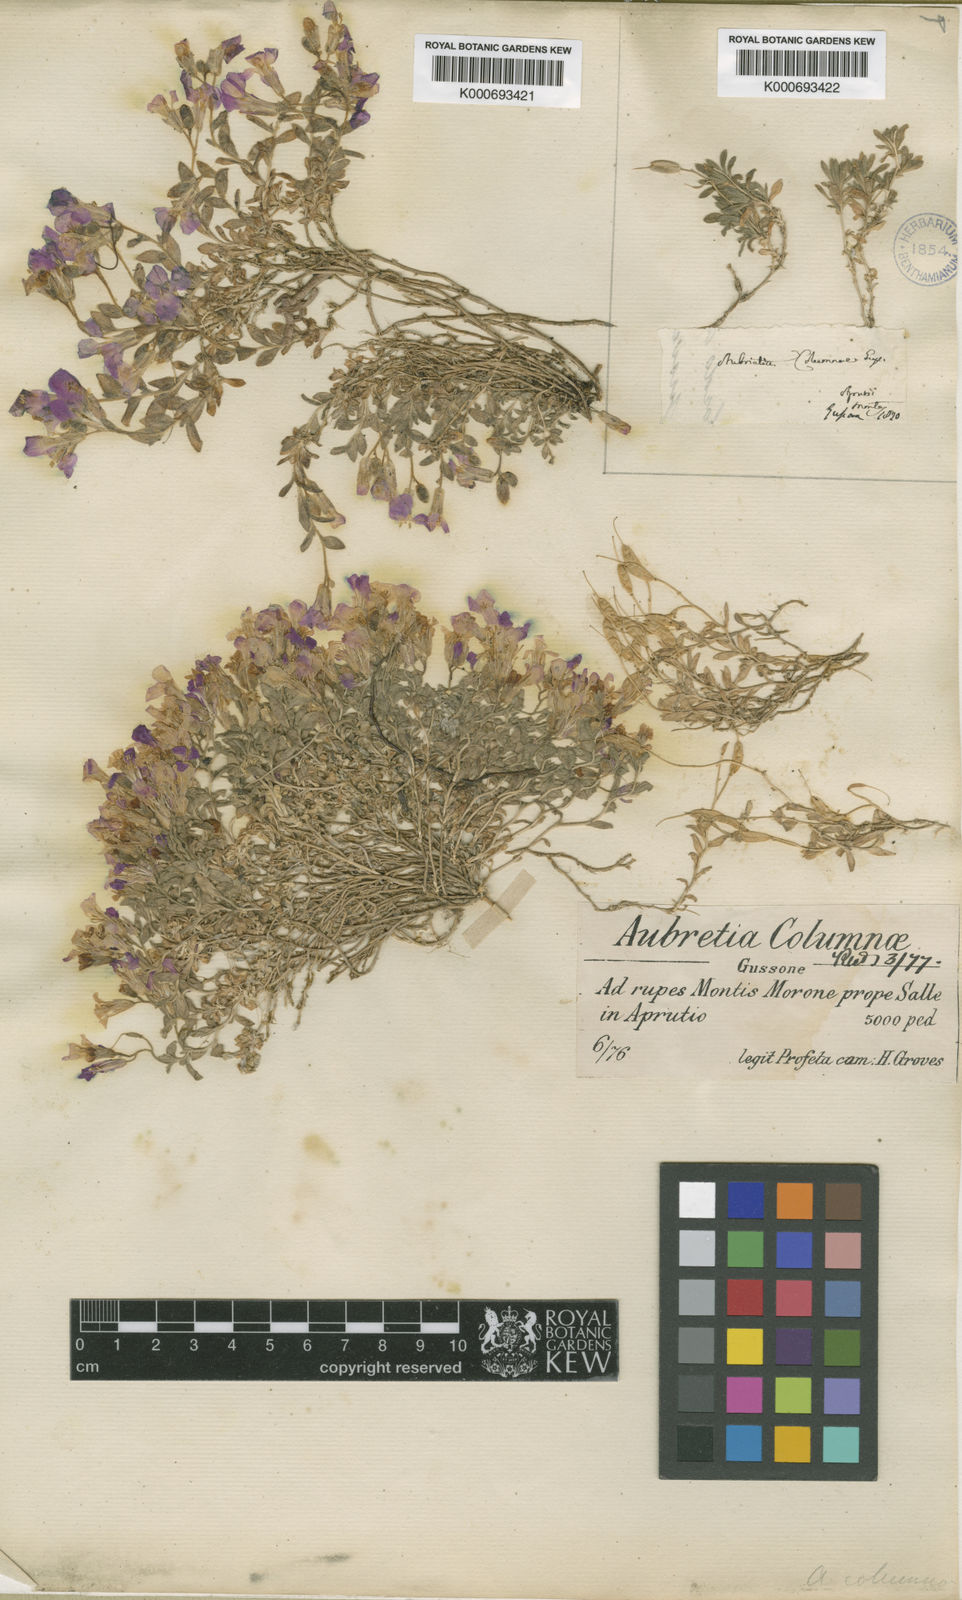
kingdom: Plantae
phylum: Tracheophyta
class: Magnoliopsida
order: Brassicales
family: Brassicaceae
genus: Aubrieta
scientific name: Aubrieta columnae
